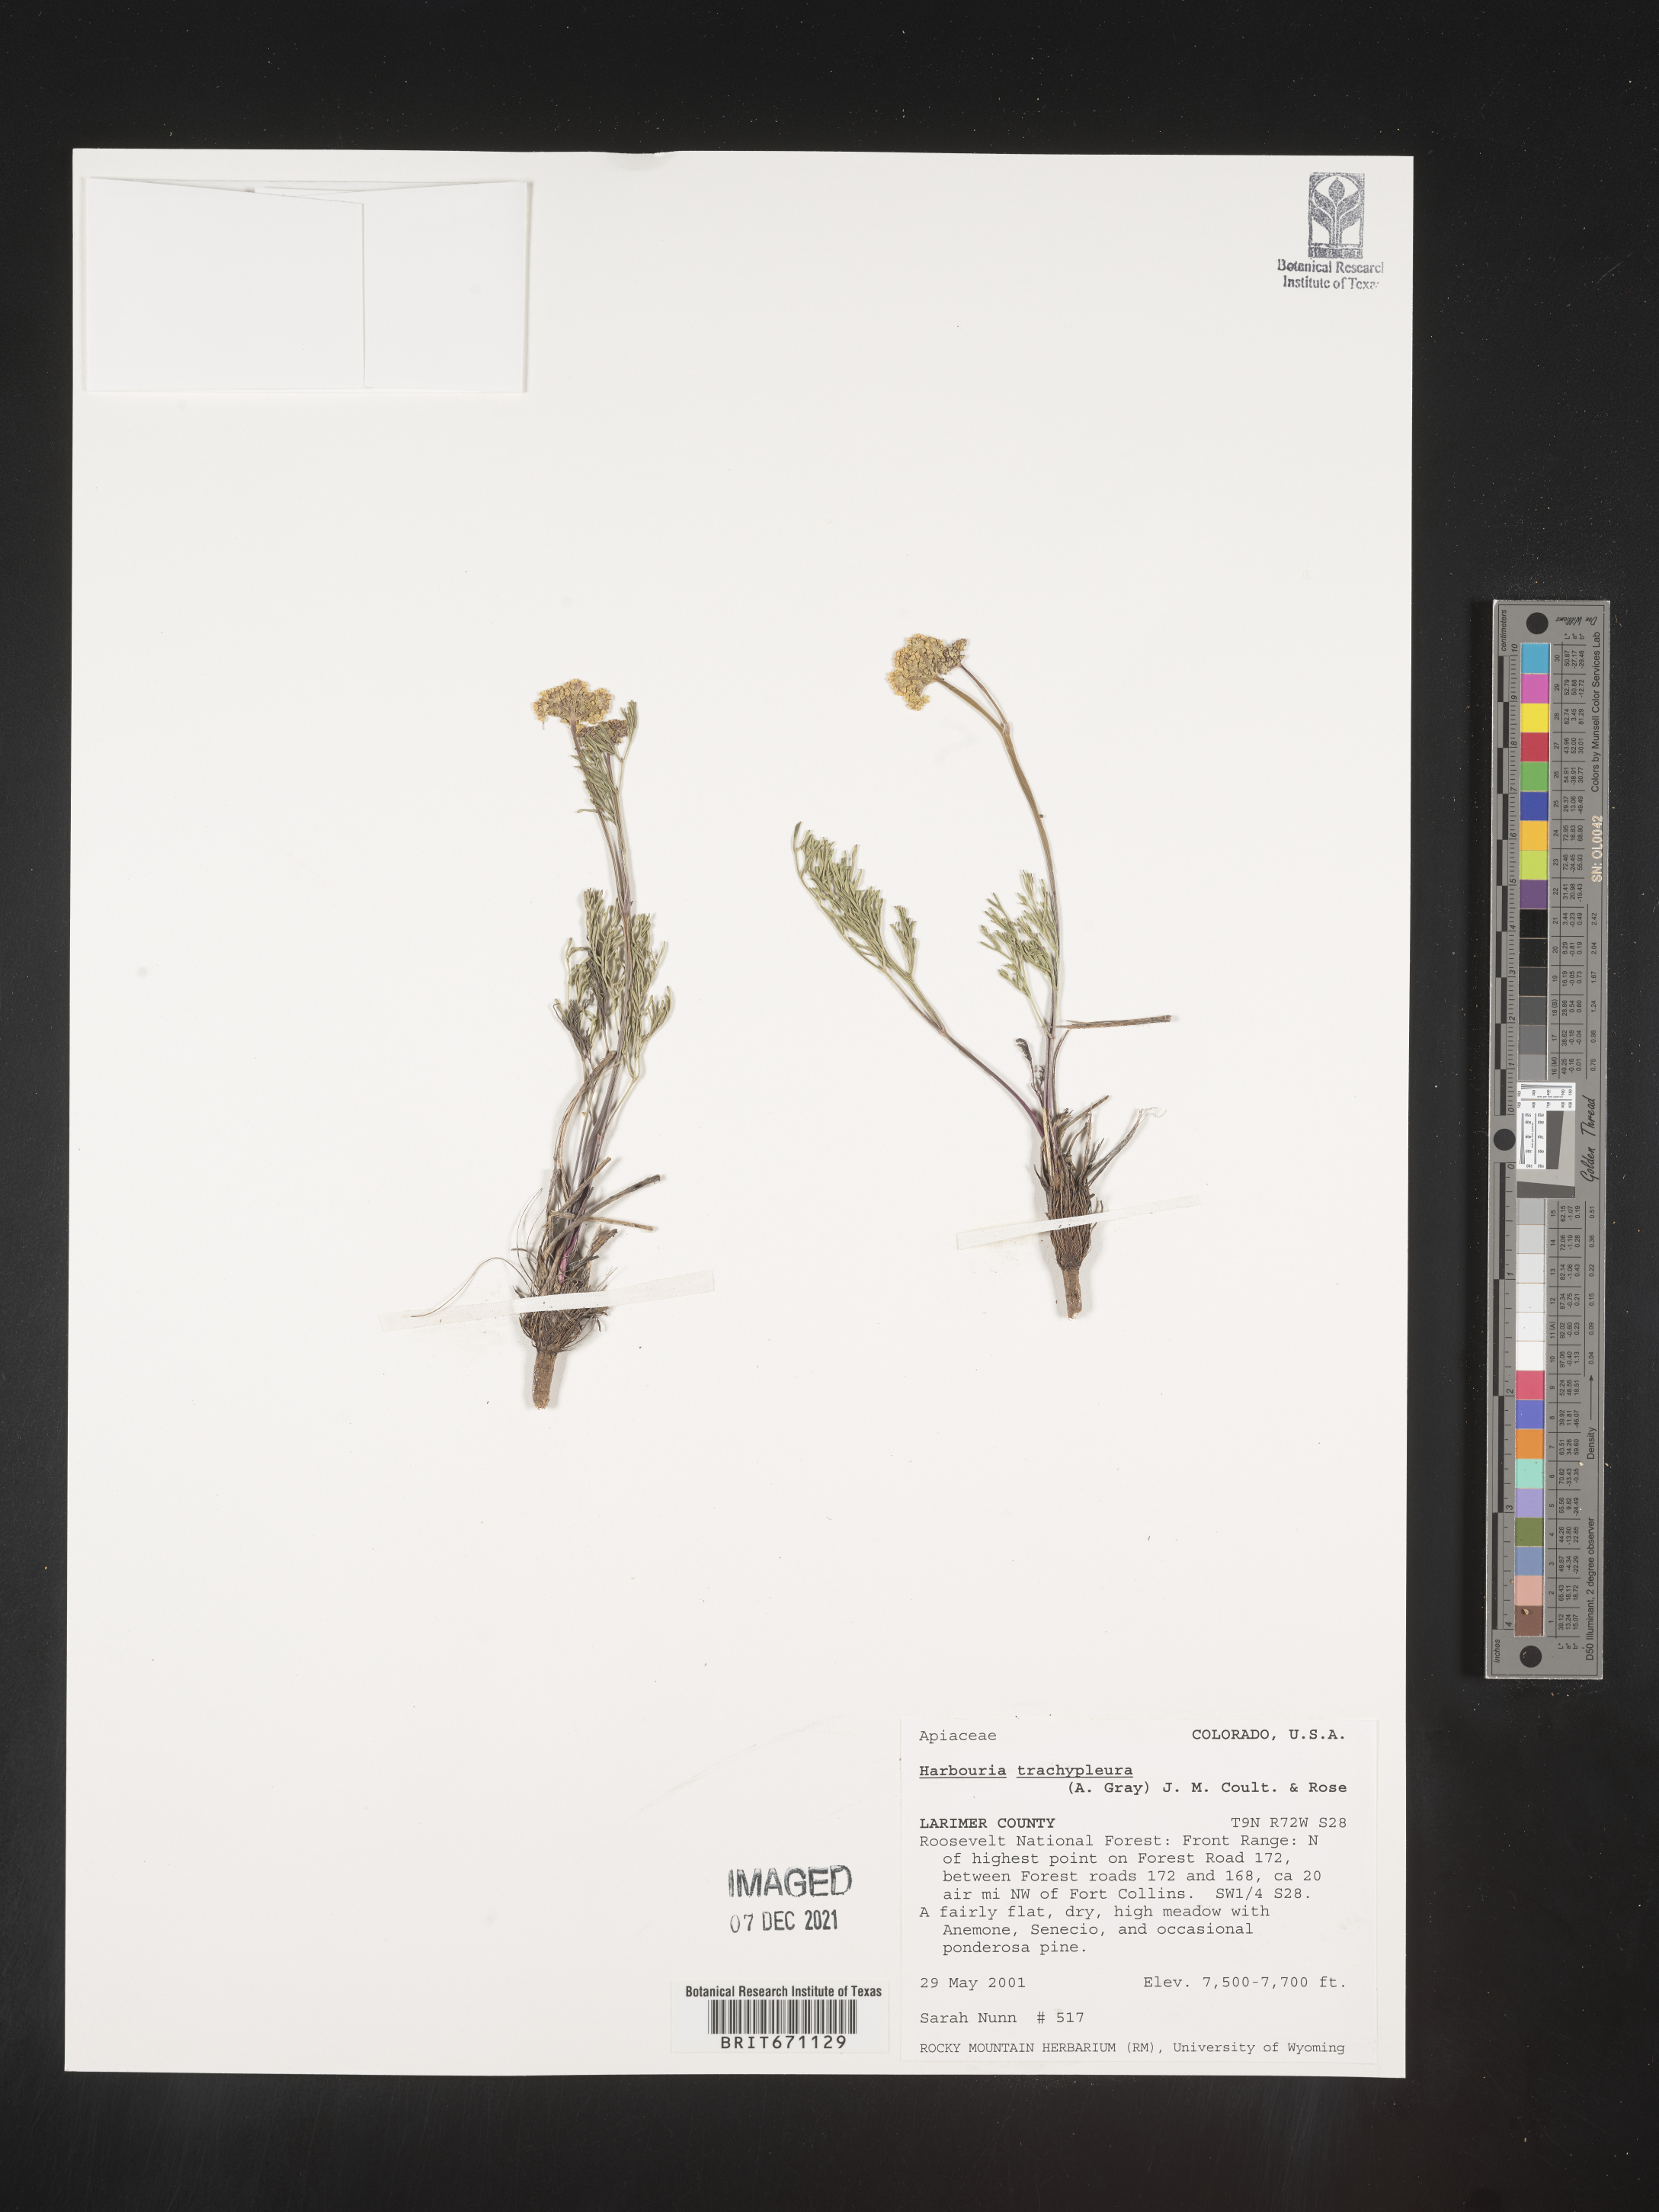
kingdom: Plantae
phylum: Tracheophyta
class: Magnoliopsida
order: Apiales
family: Apiaceae
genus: Harbouria
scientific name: Harbouria trachypleura
